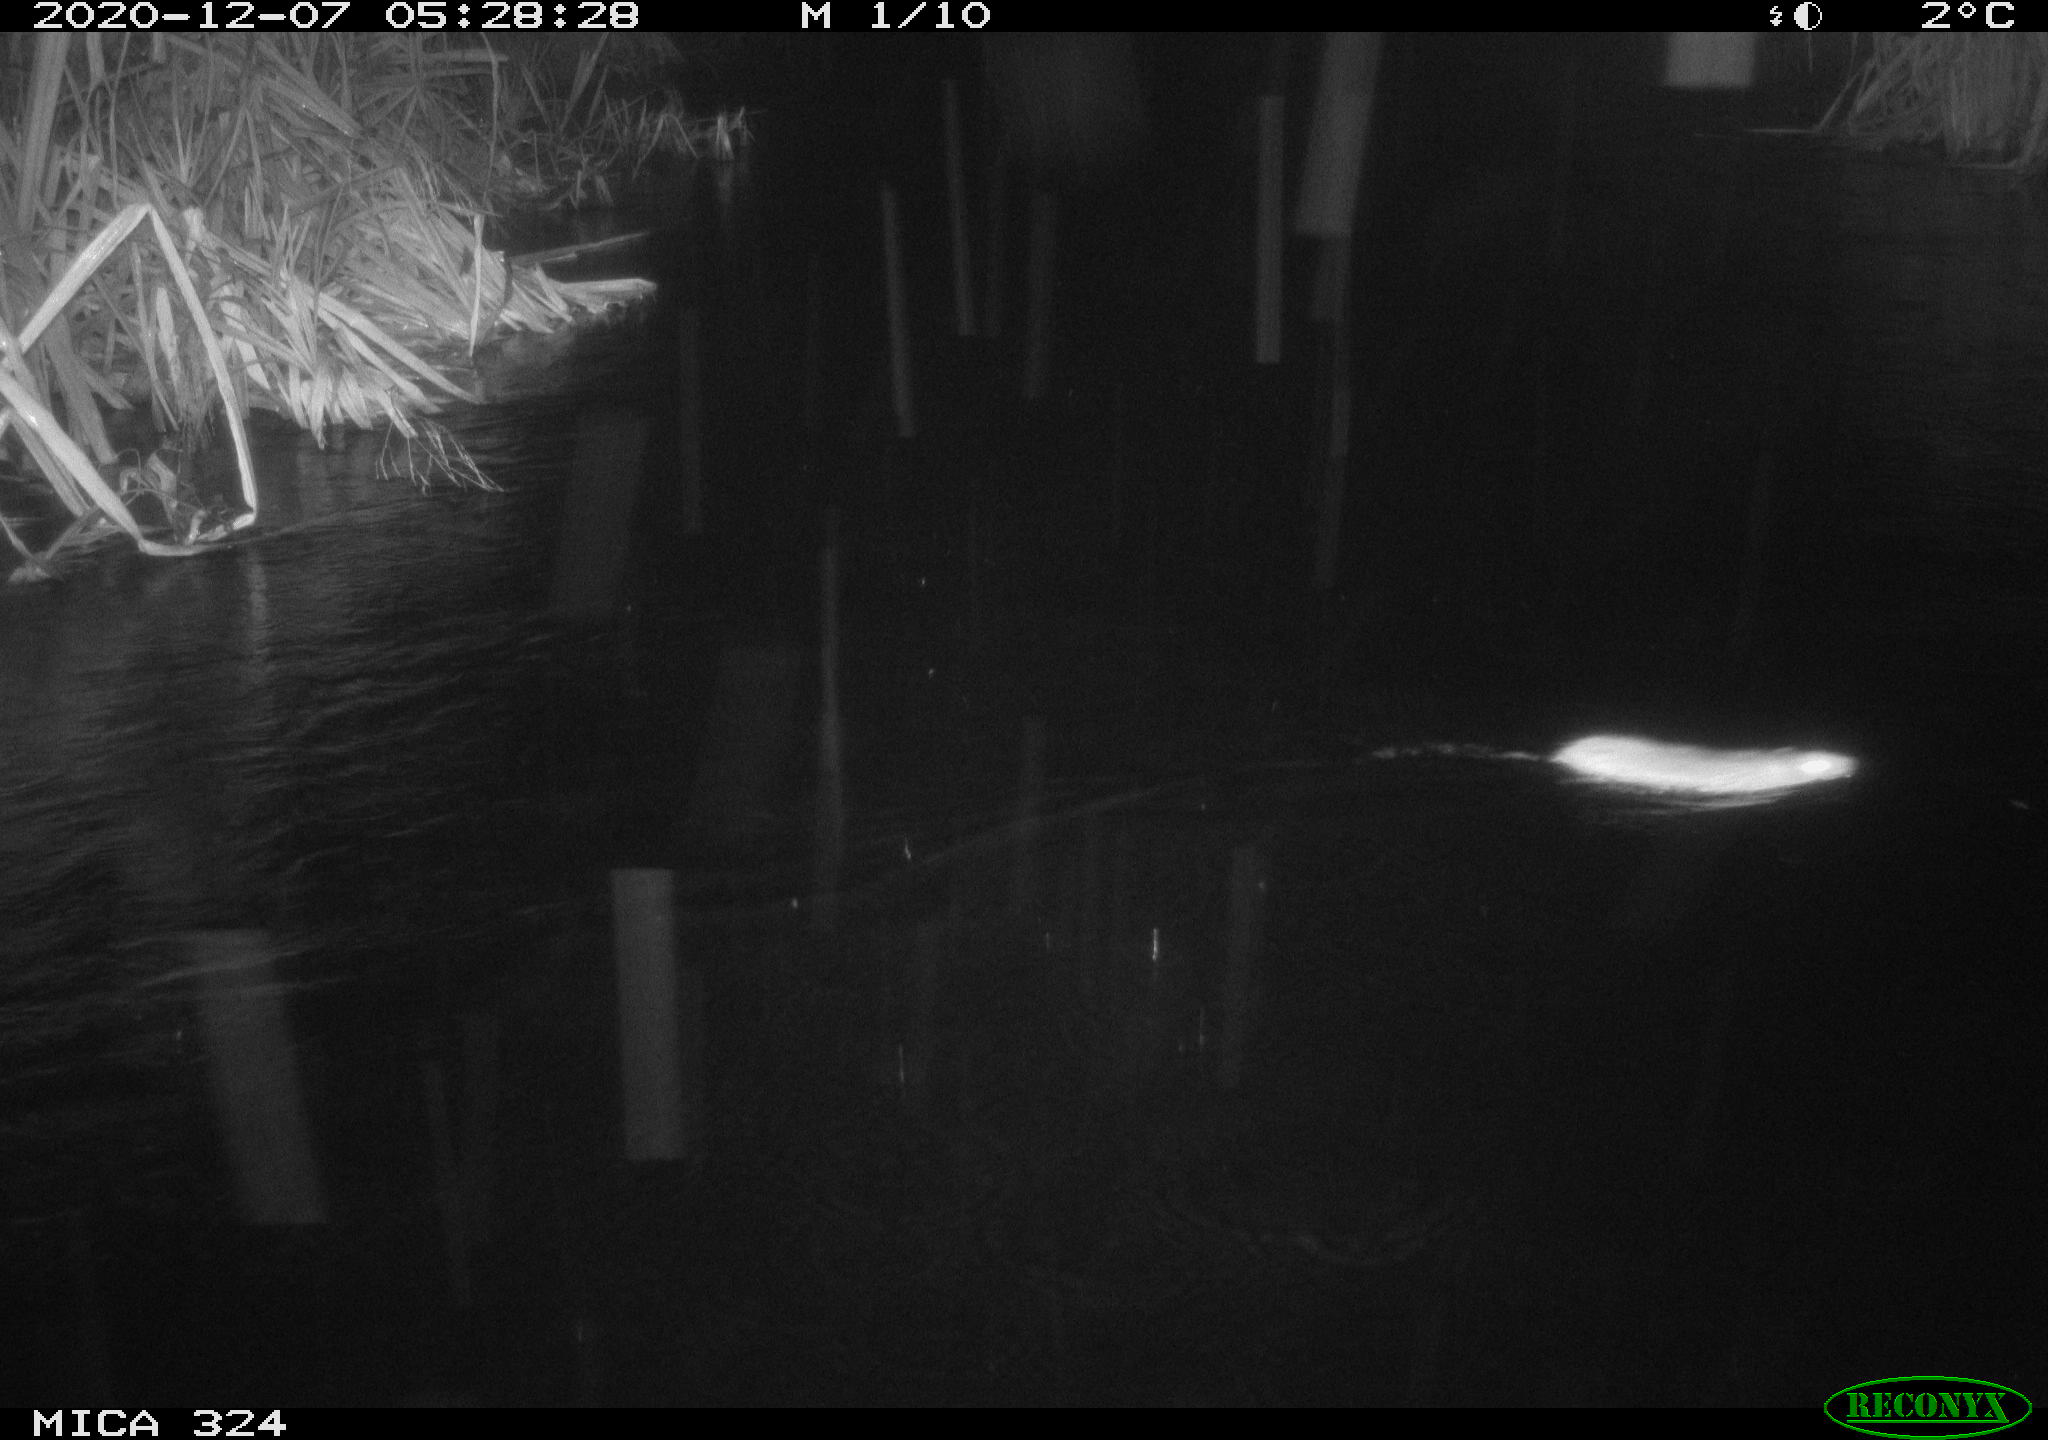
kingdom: Animalia
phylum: Chordata
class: Mammalia
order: Rodentia
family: Muridae
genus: Rattus
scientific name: Rattus norvegicus
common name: Brown rat
